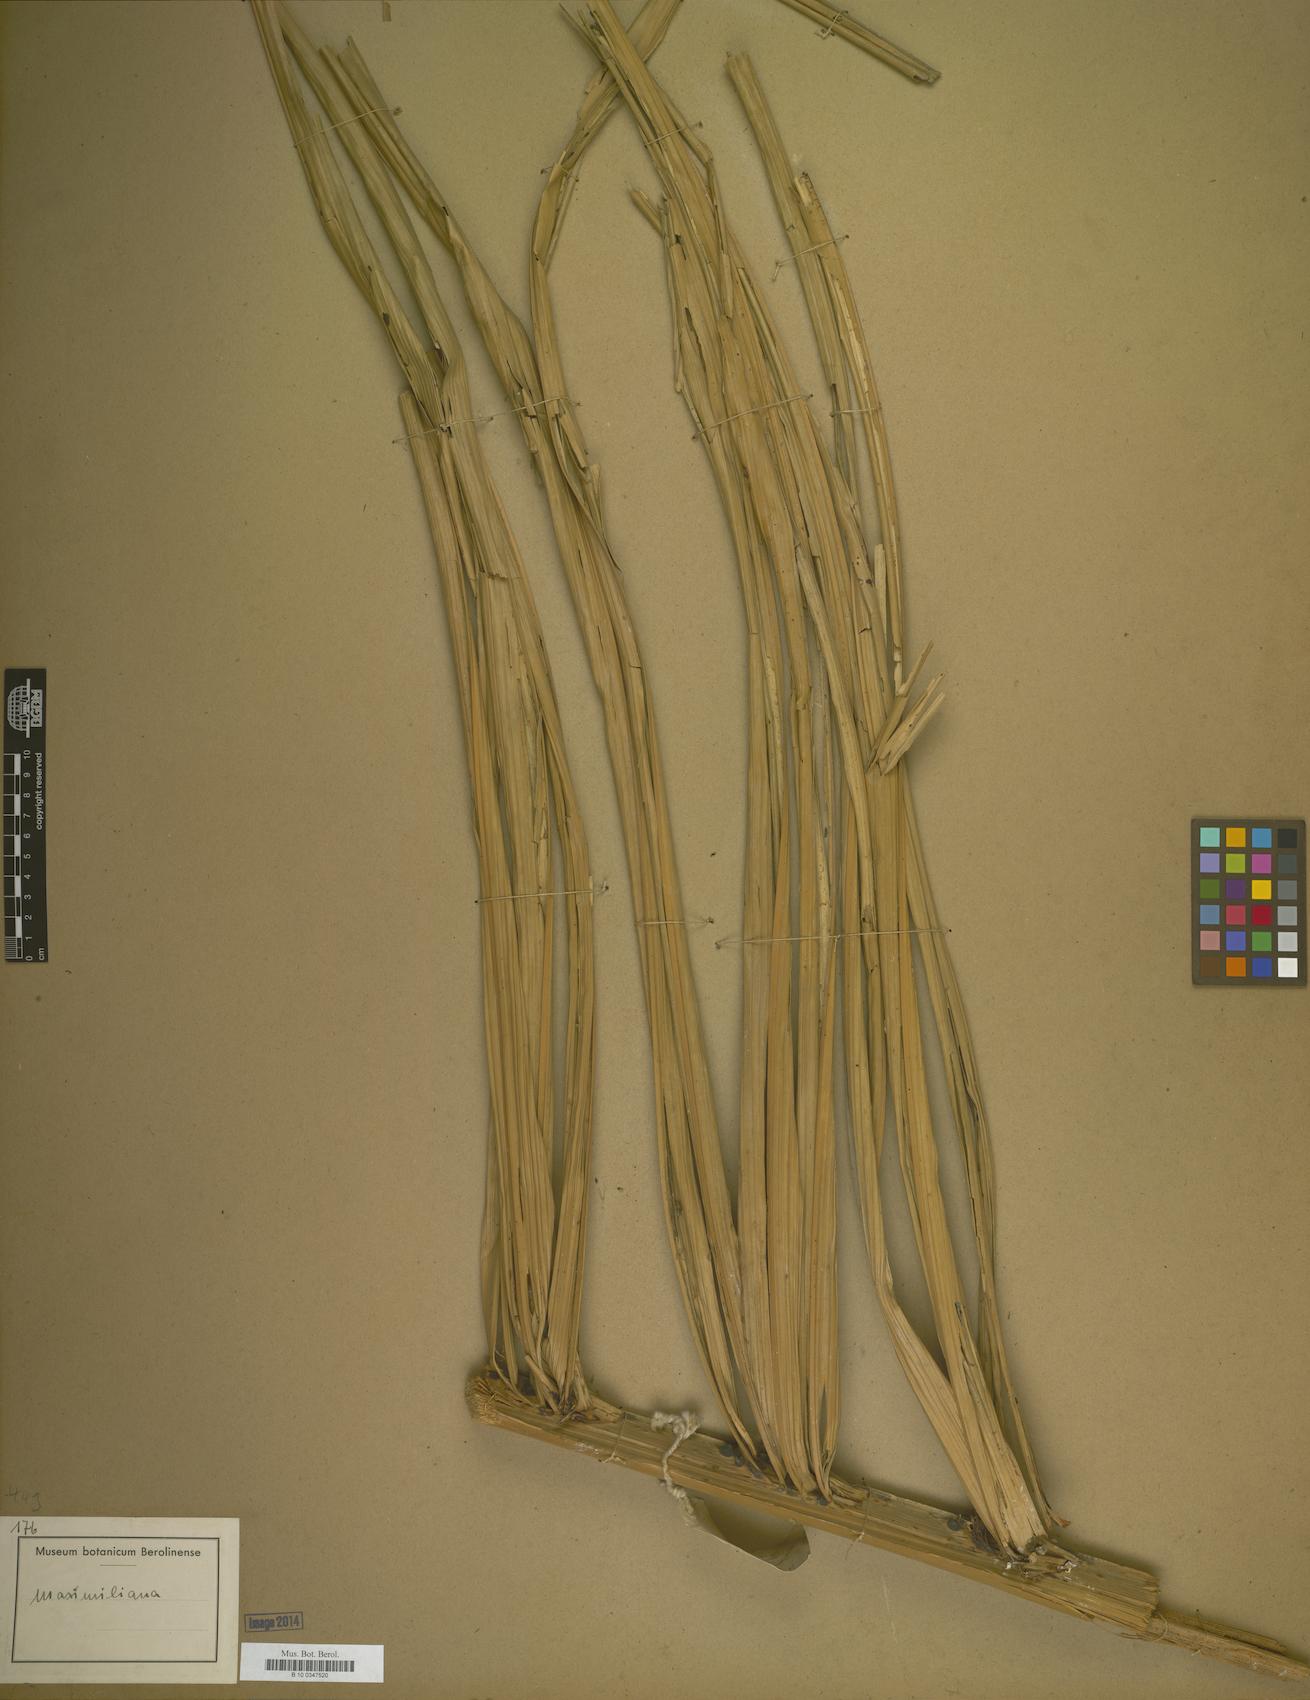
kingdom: Plantae
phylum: Tracheophyta
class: Liliopsida
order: Arecales
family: Arecaceae
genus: Attalea
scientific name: Attalea
